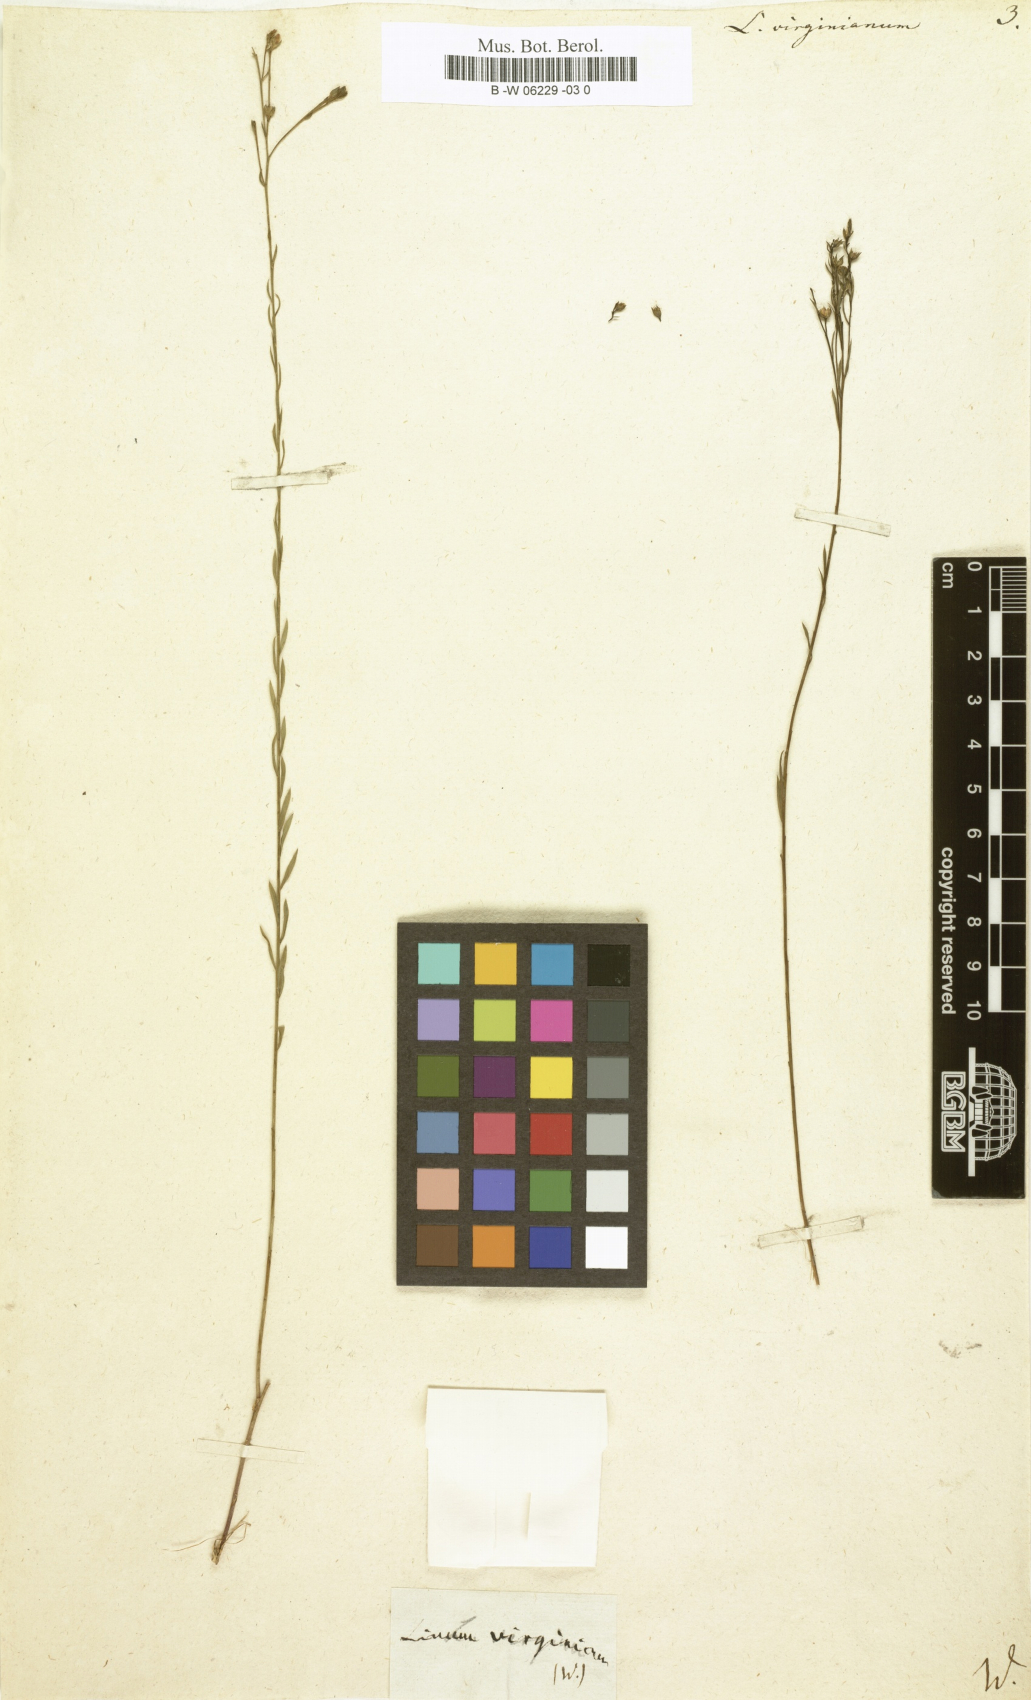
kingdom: Plantae
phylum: Tracheophyta
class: Magnoliopsida
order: Malpighiales
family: Linaceae
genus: Linum
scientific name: Linum virginianum
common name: Slender yellow flax
